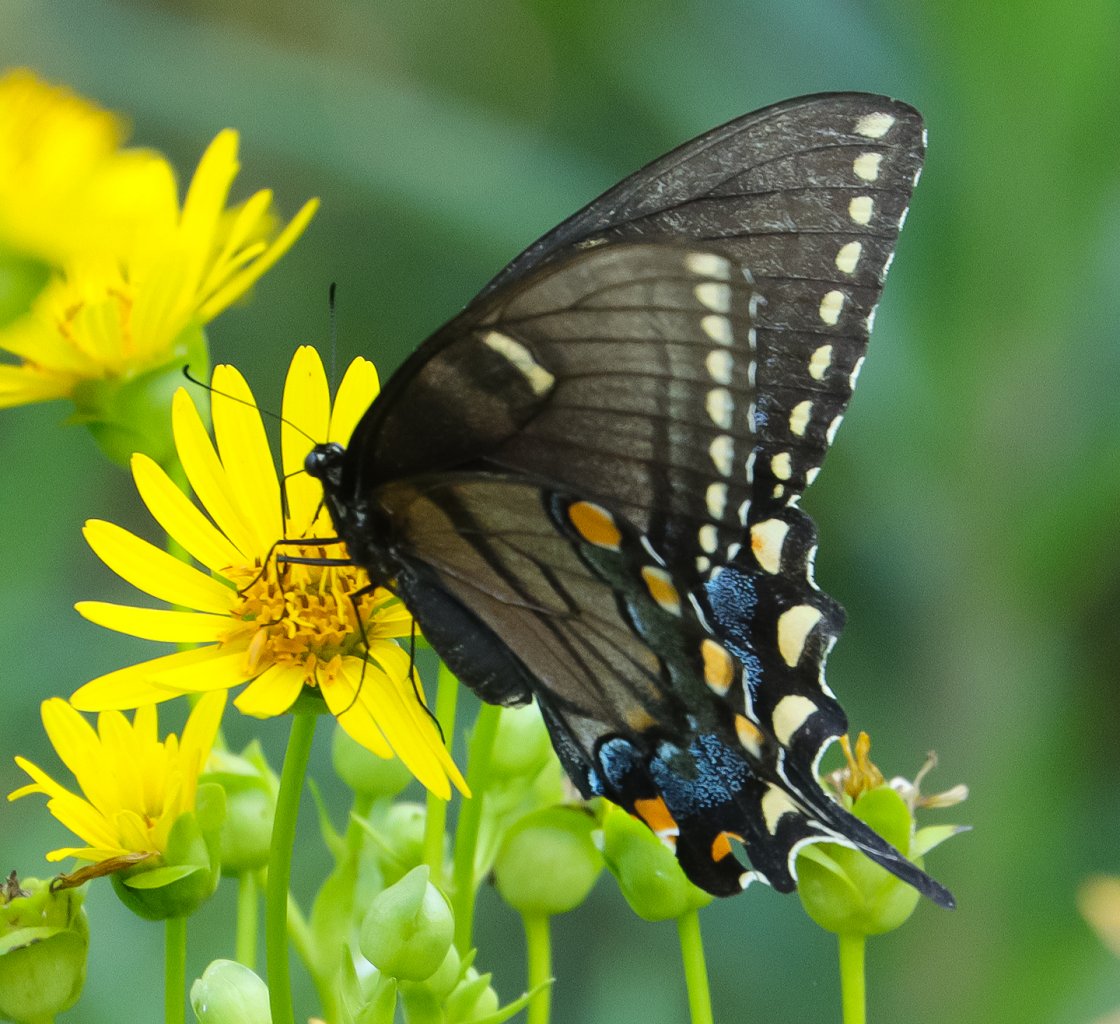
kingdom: Animalia
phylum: Arthropoda
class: Insecta
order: Lepidoptera
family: Papilionidae
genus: Pterourus
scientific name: Pterourus glaucus
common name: Eastern Tiger Swallowtail
